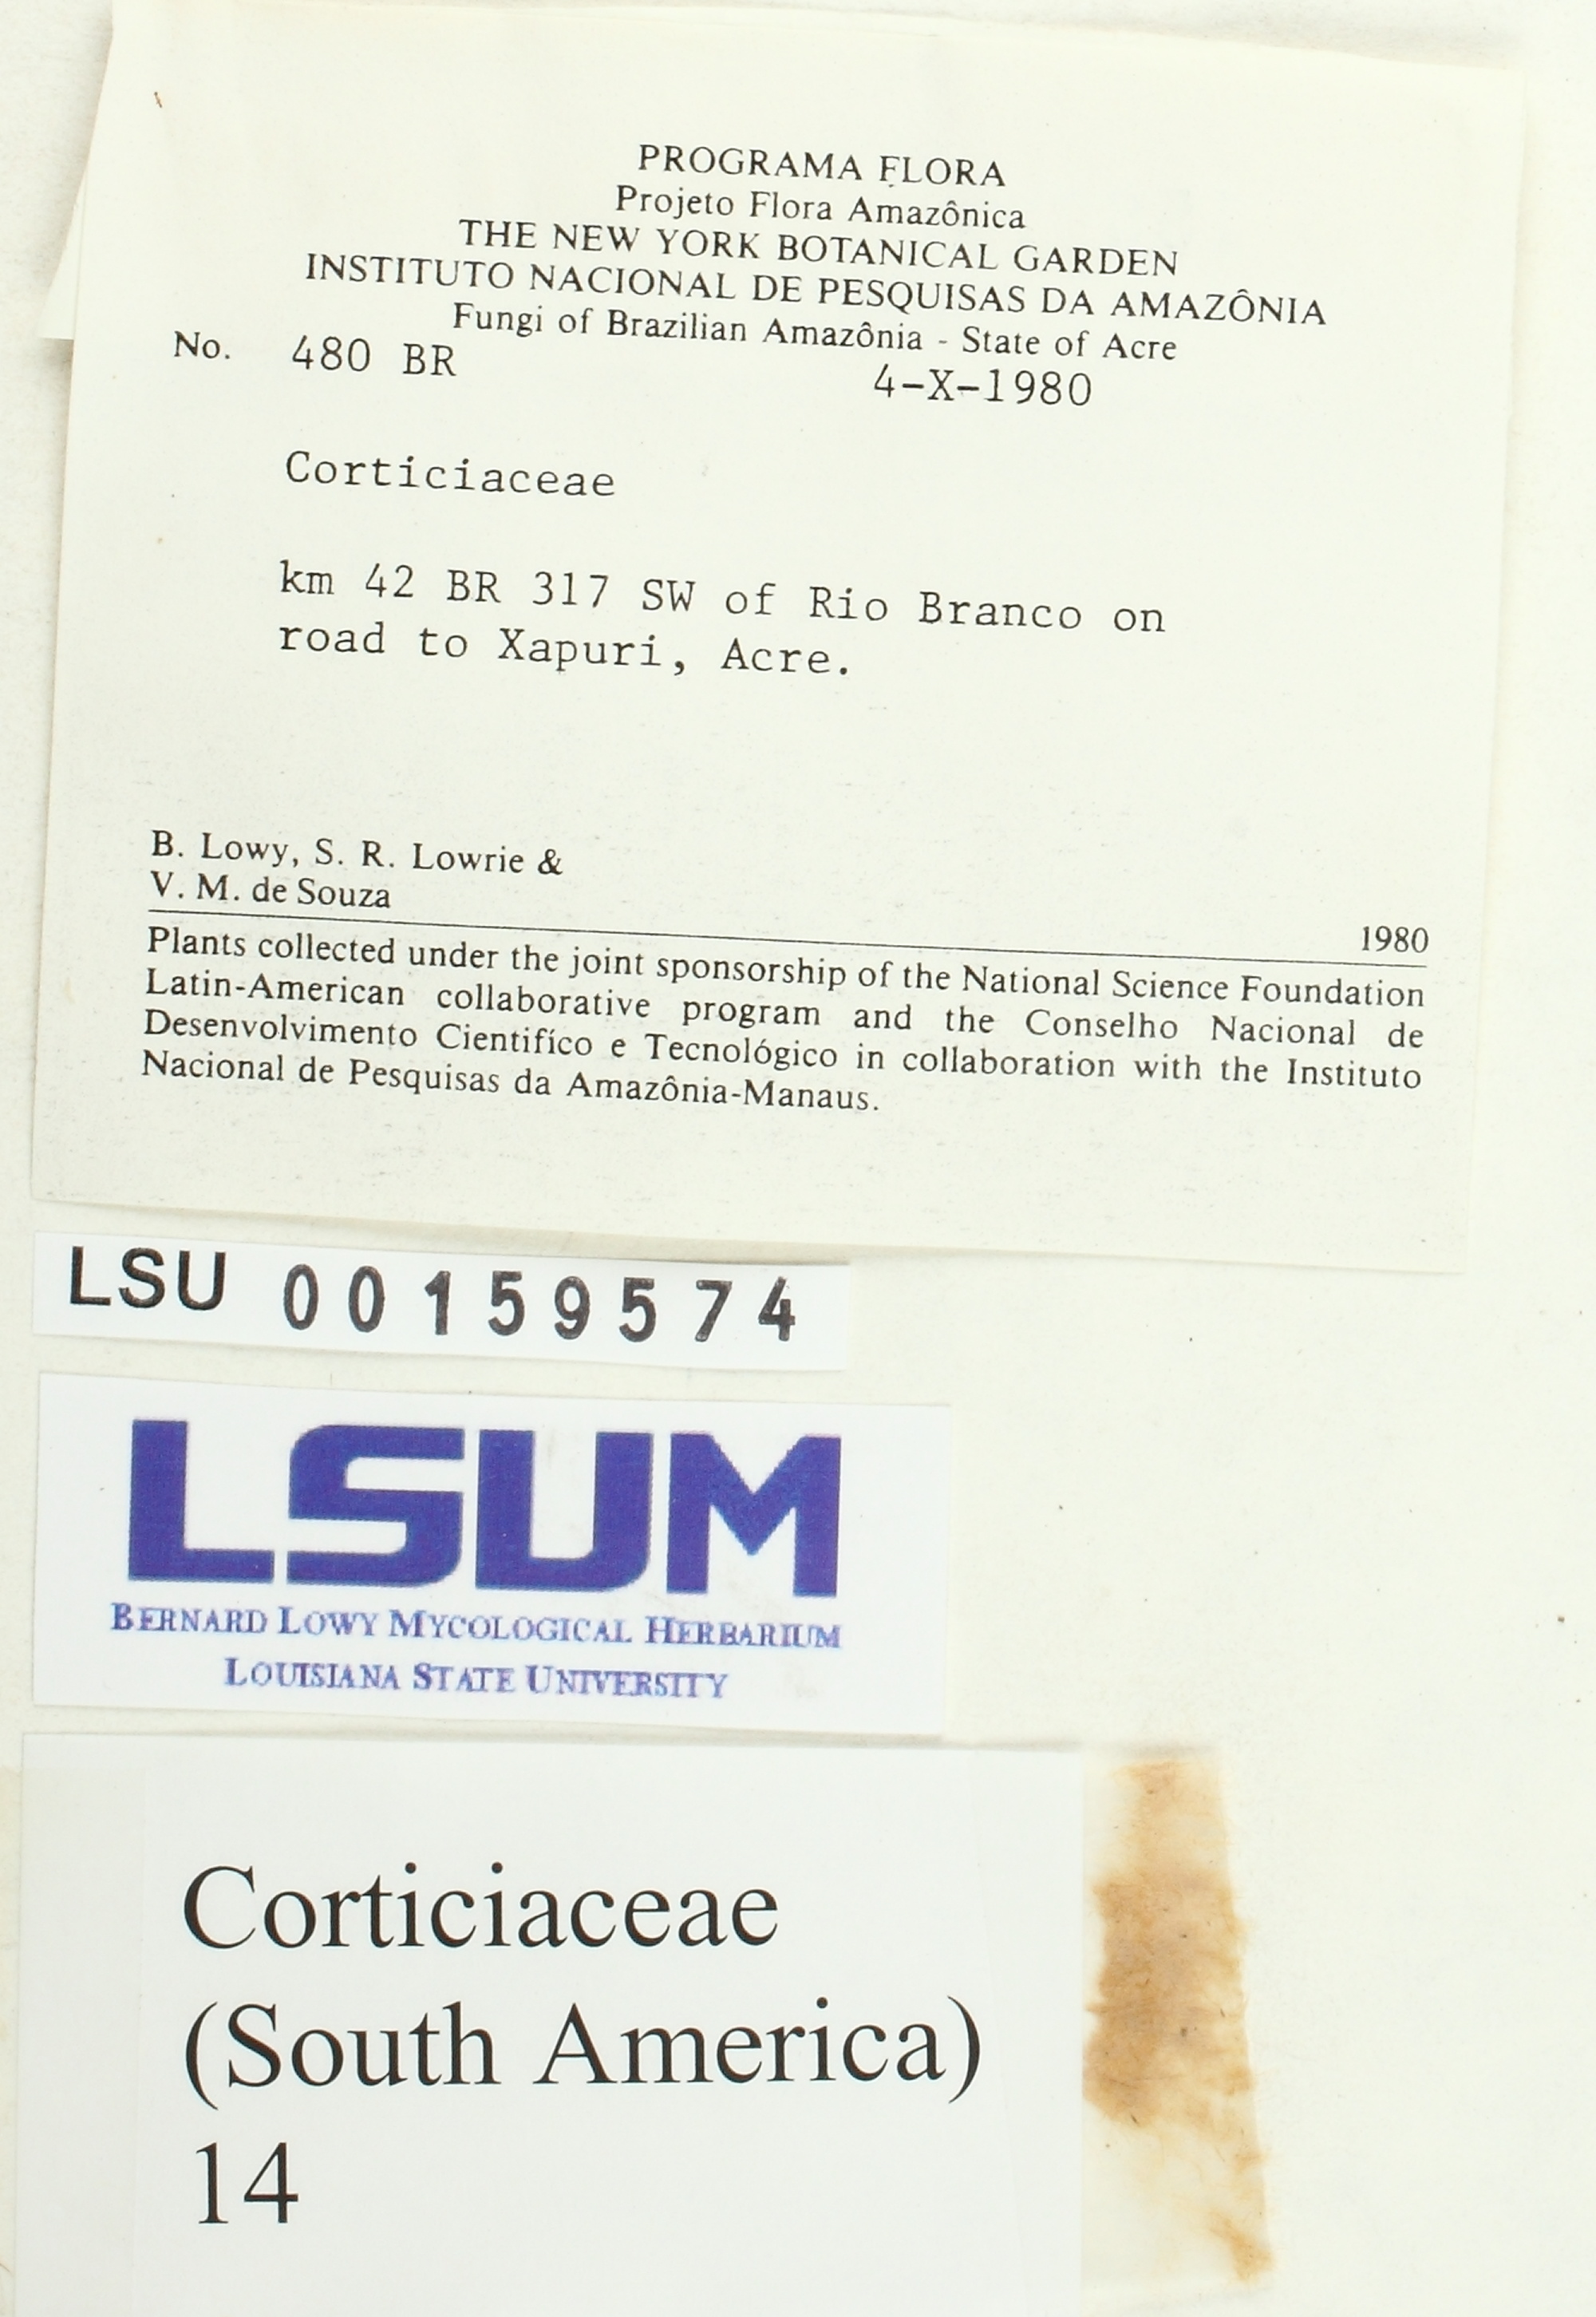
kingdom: Fungi
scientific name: Fungi
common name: Fungi
